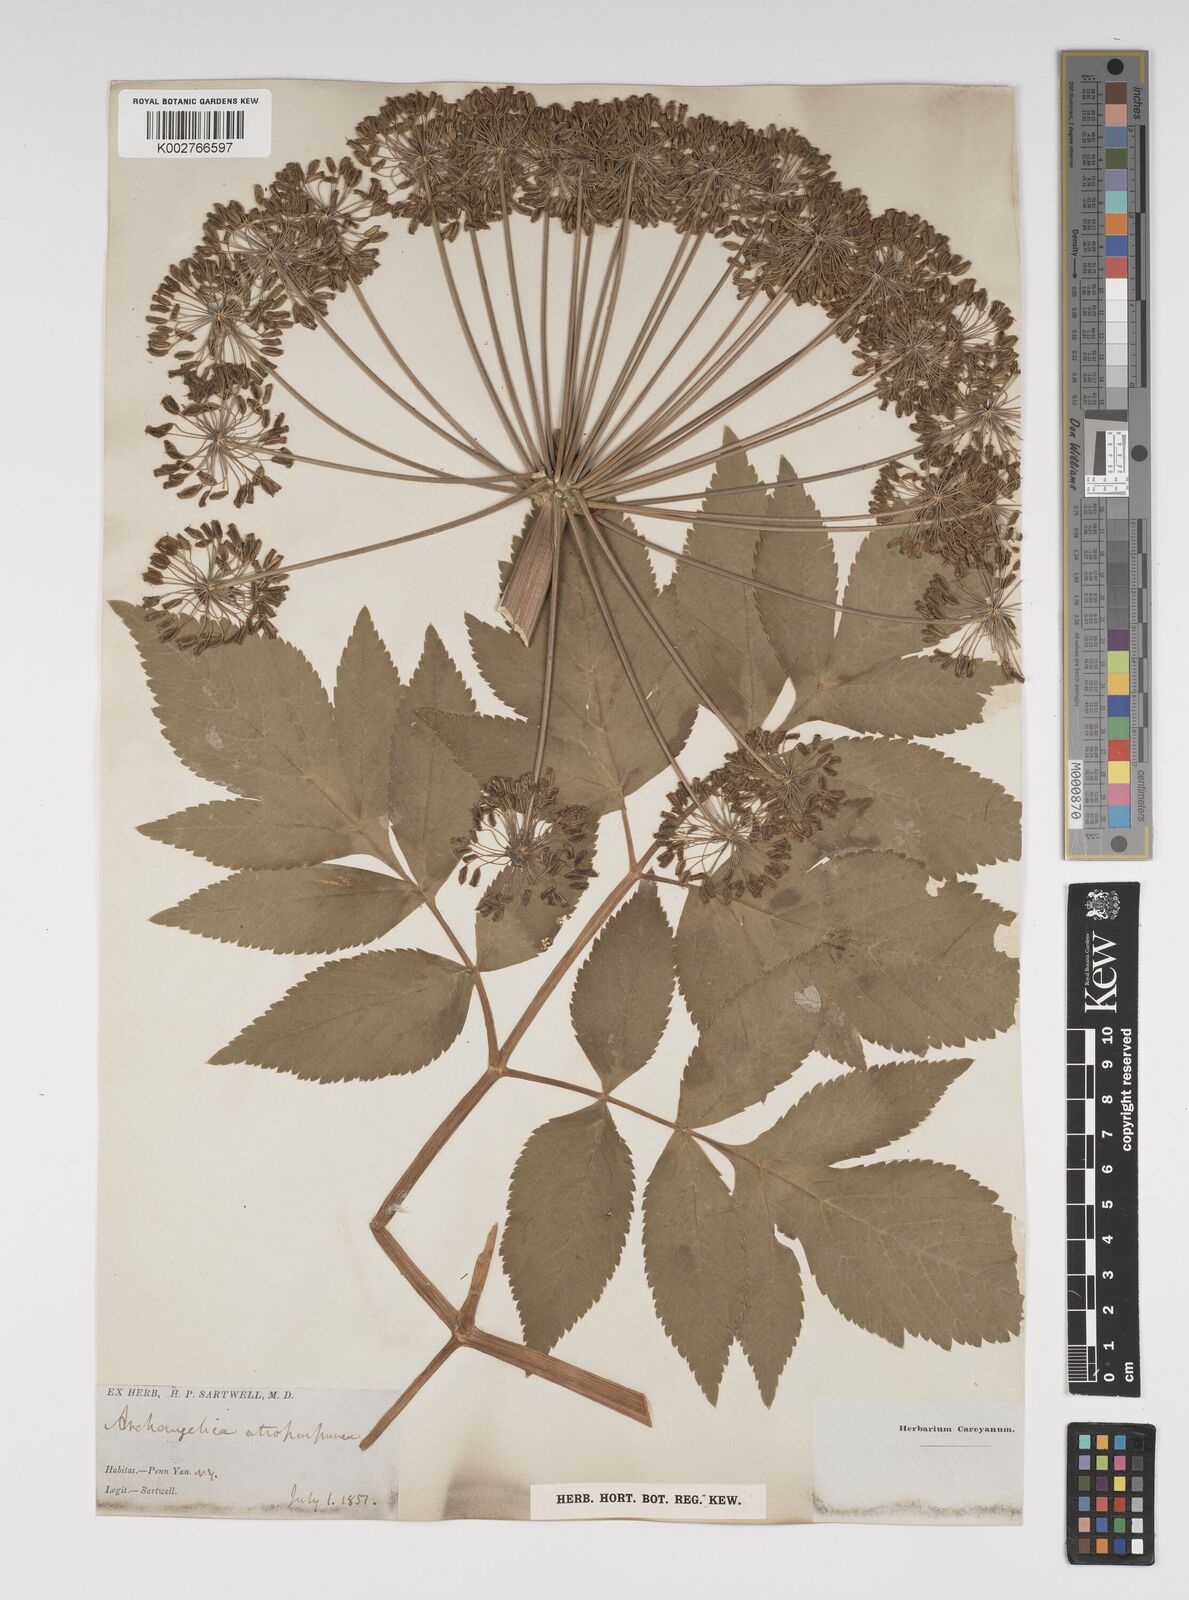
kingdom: Plantae
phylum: Tracheophyta
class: Magnoliopsida
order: Apiales
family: Apiaceae
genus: Angelica
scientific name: Angelica atropurpurea
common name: Great angelica
